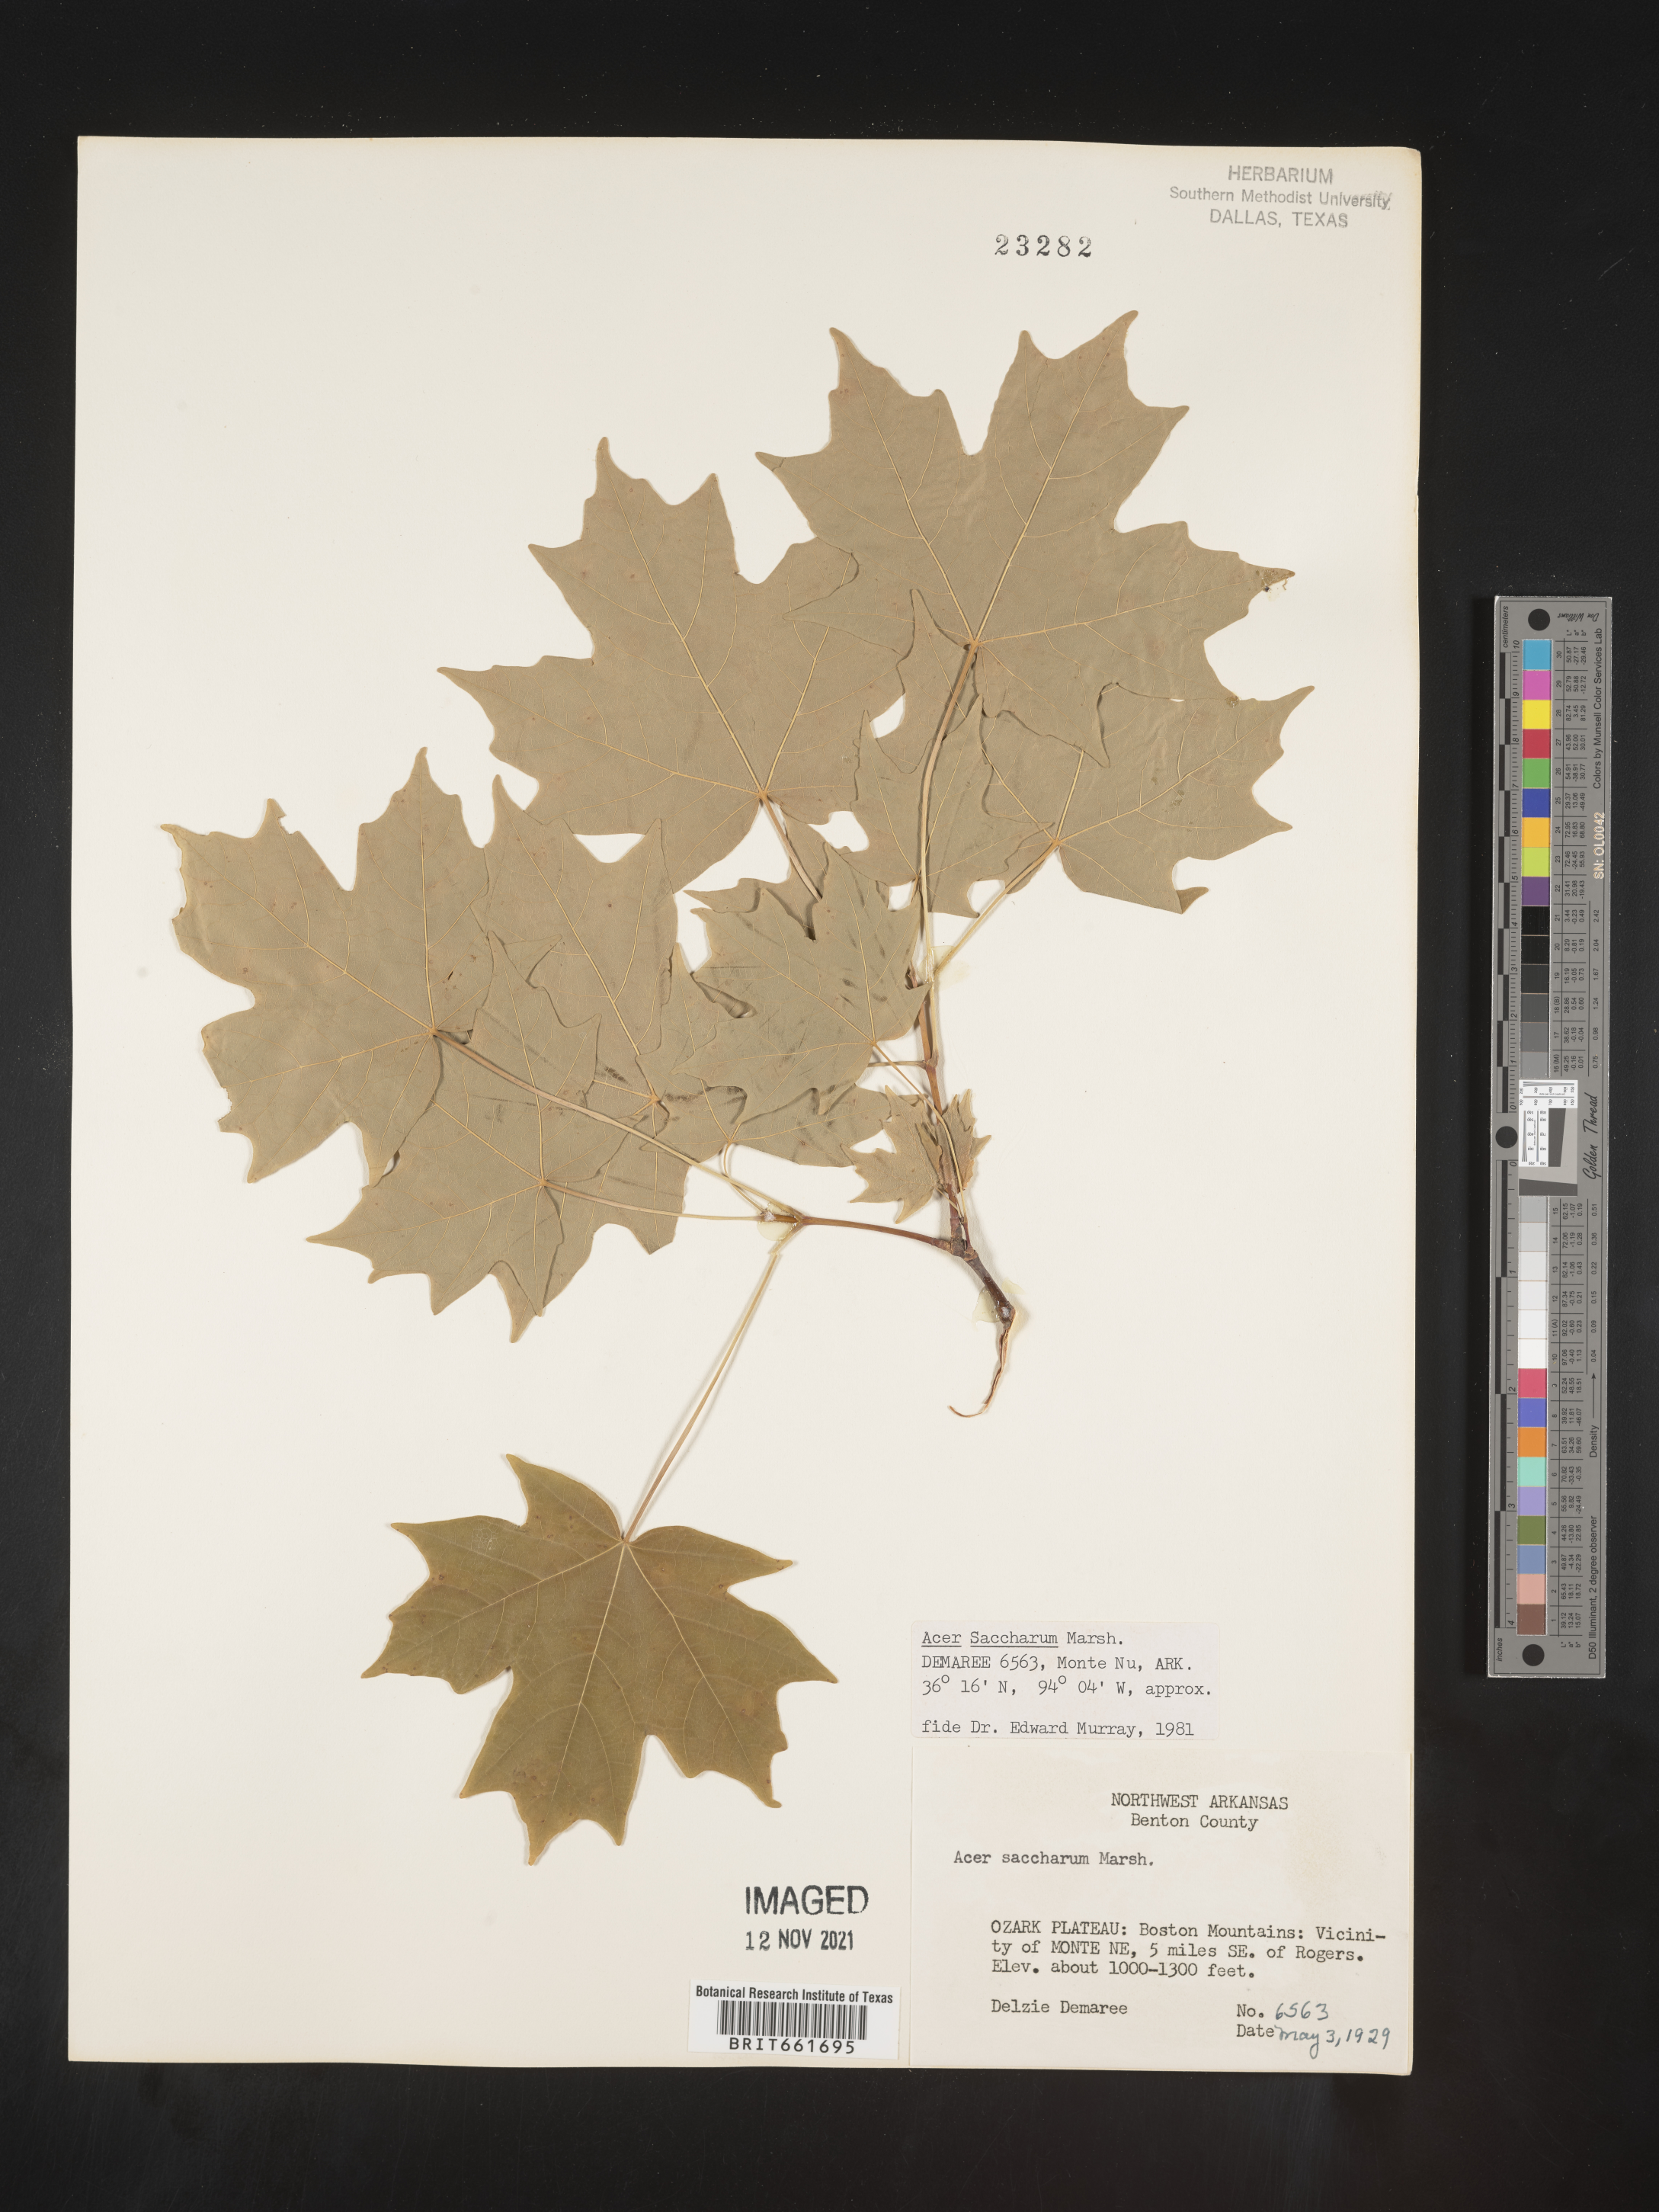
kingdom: Plantae
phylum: Tracheophyta
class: Magnoliopsida
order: Sapindales
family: Sapindaceae
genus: Acer
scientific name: Acer saccharum
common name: Sugar maple
